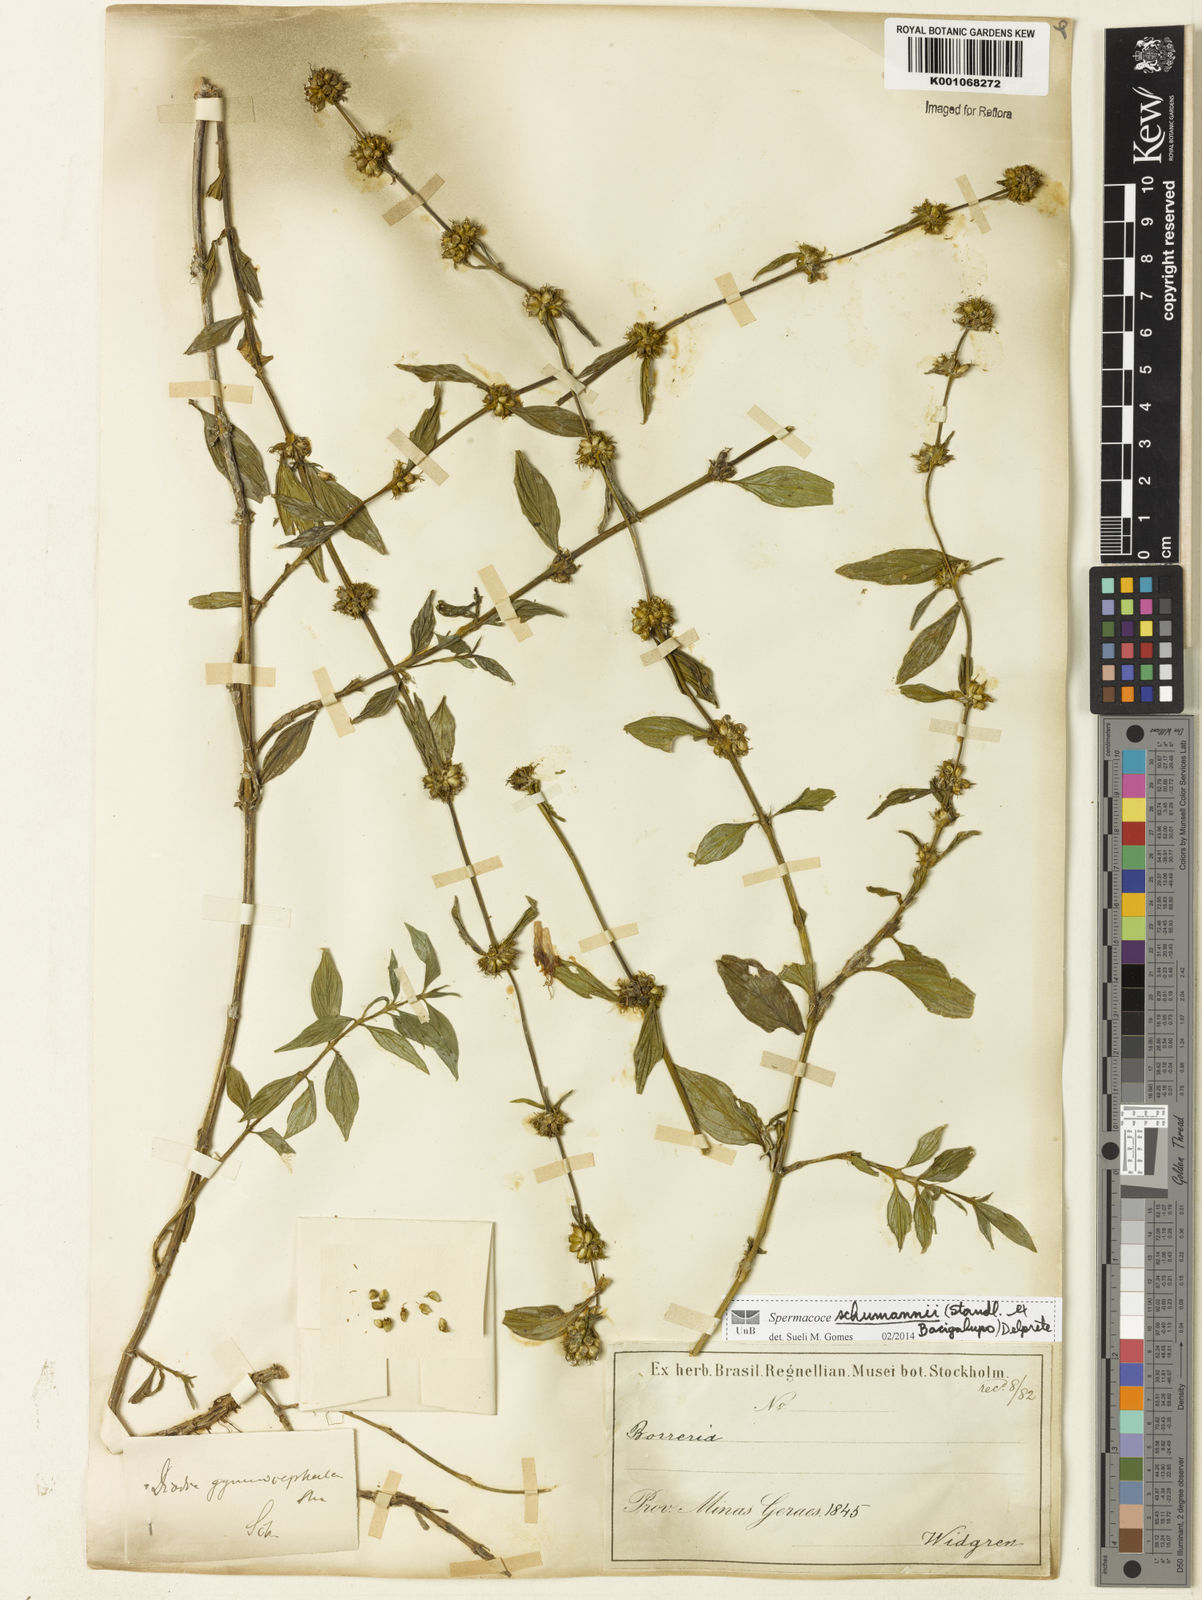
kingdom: Plantae
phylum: Tracheophyta
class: Magnoliopsida
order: Gentianales
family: Rubiaceae
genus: Spermacoce
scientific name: Spermacoce schumannii
